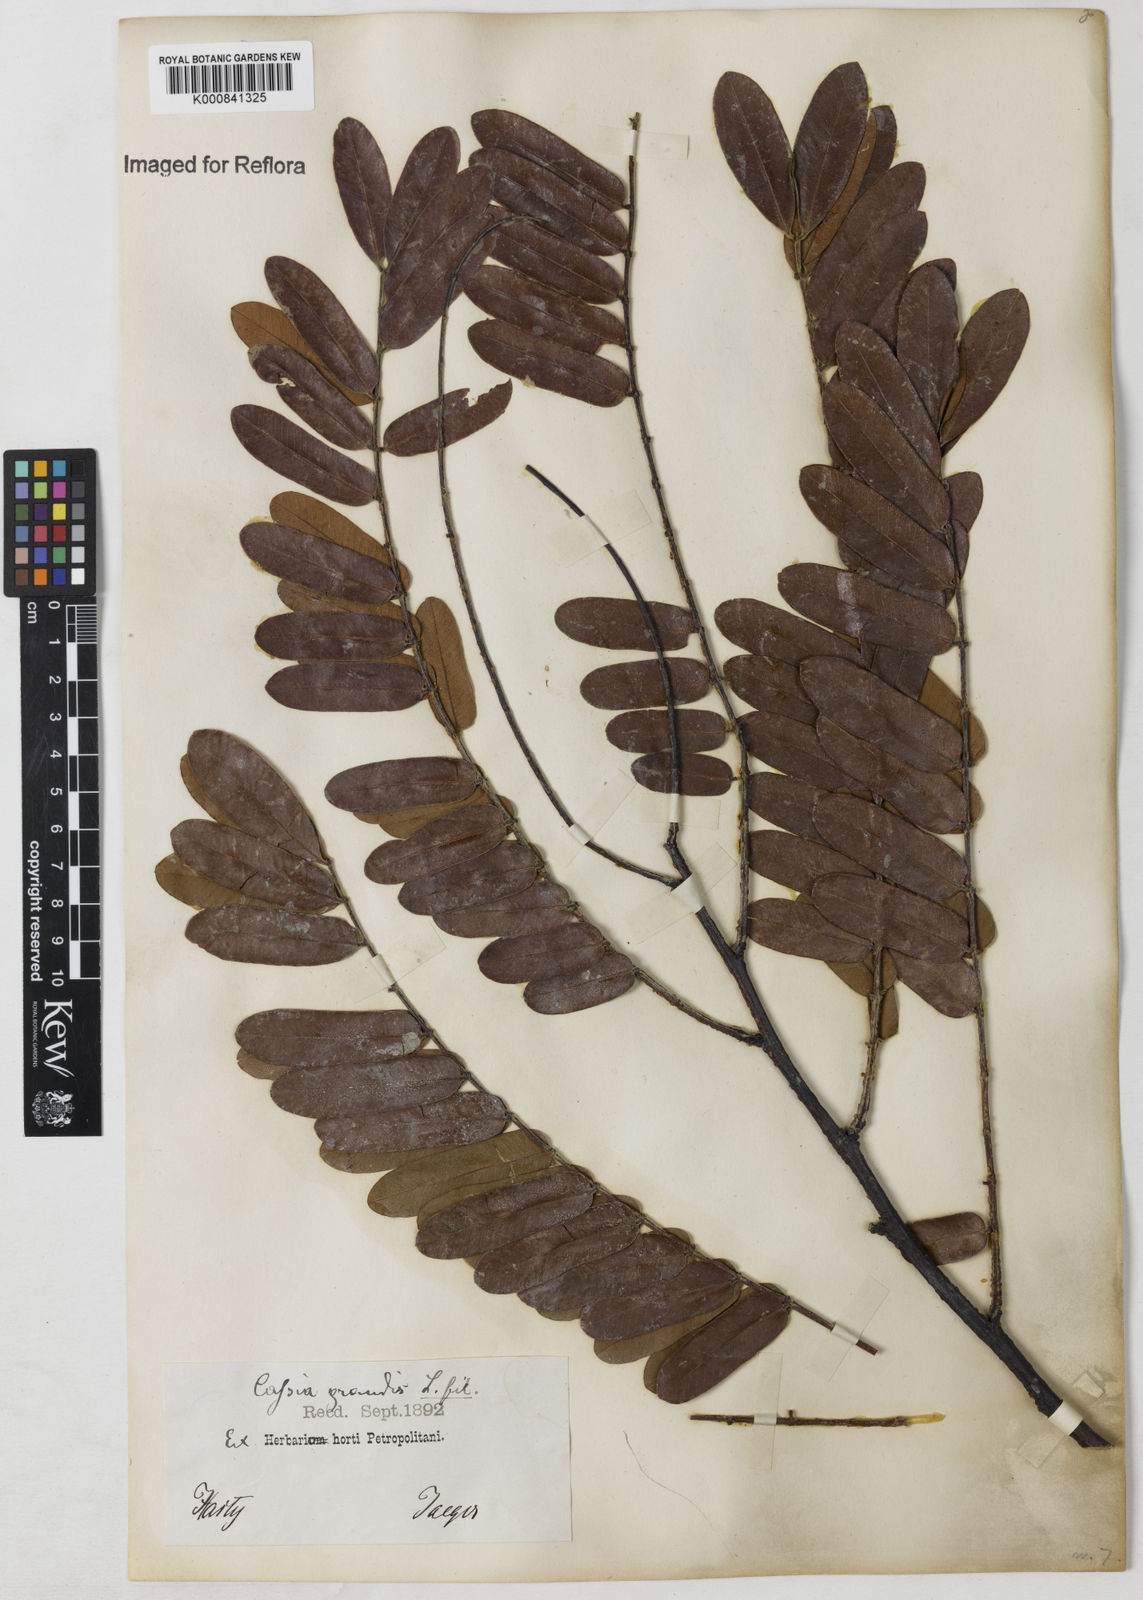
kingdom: Plantae
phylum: Tracheophyta
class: Magnoliopsida
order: Fabales
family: Fabaceae
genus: Cassia
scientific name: Cassia grandis
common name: Appleblossom cassia
